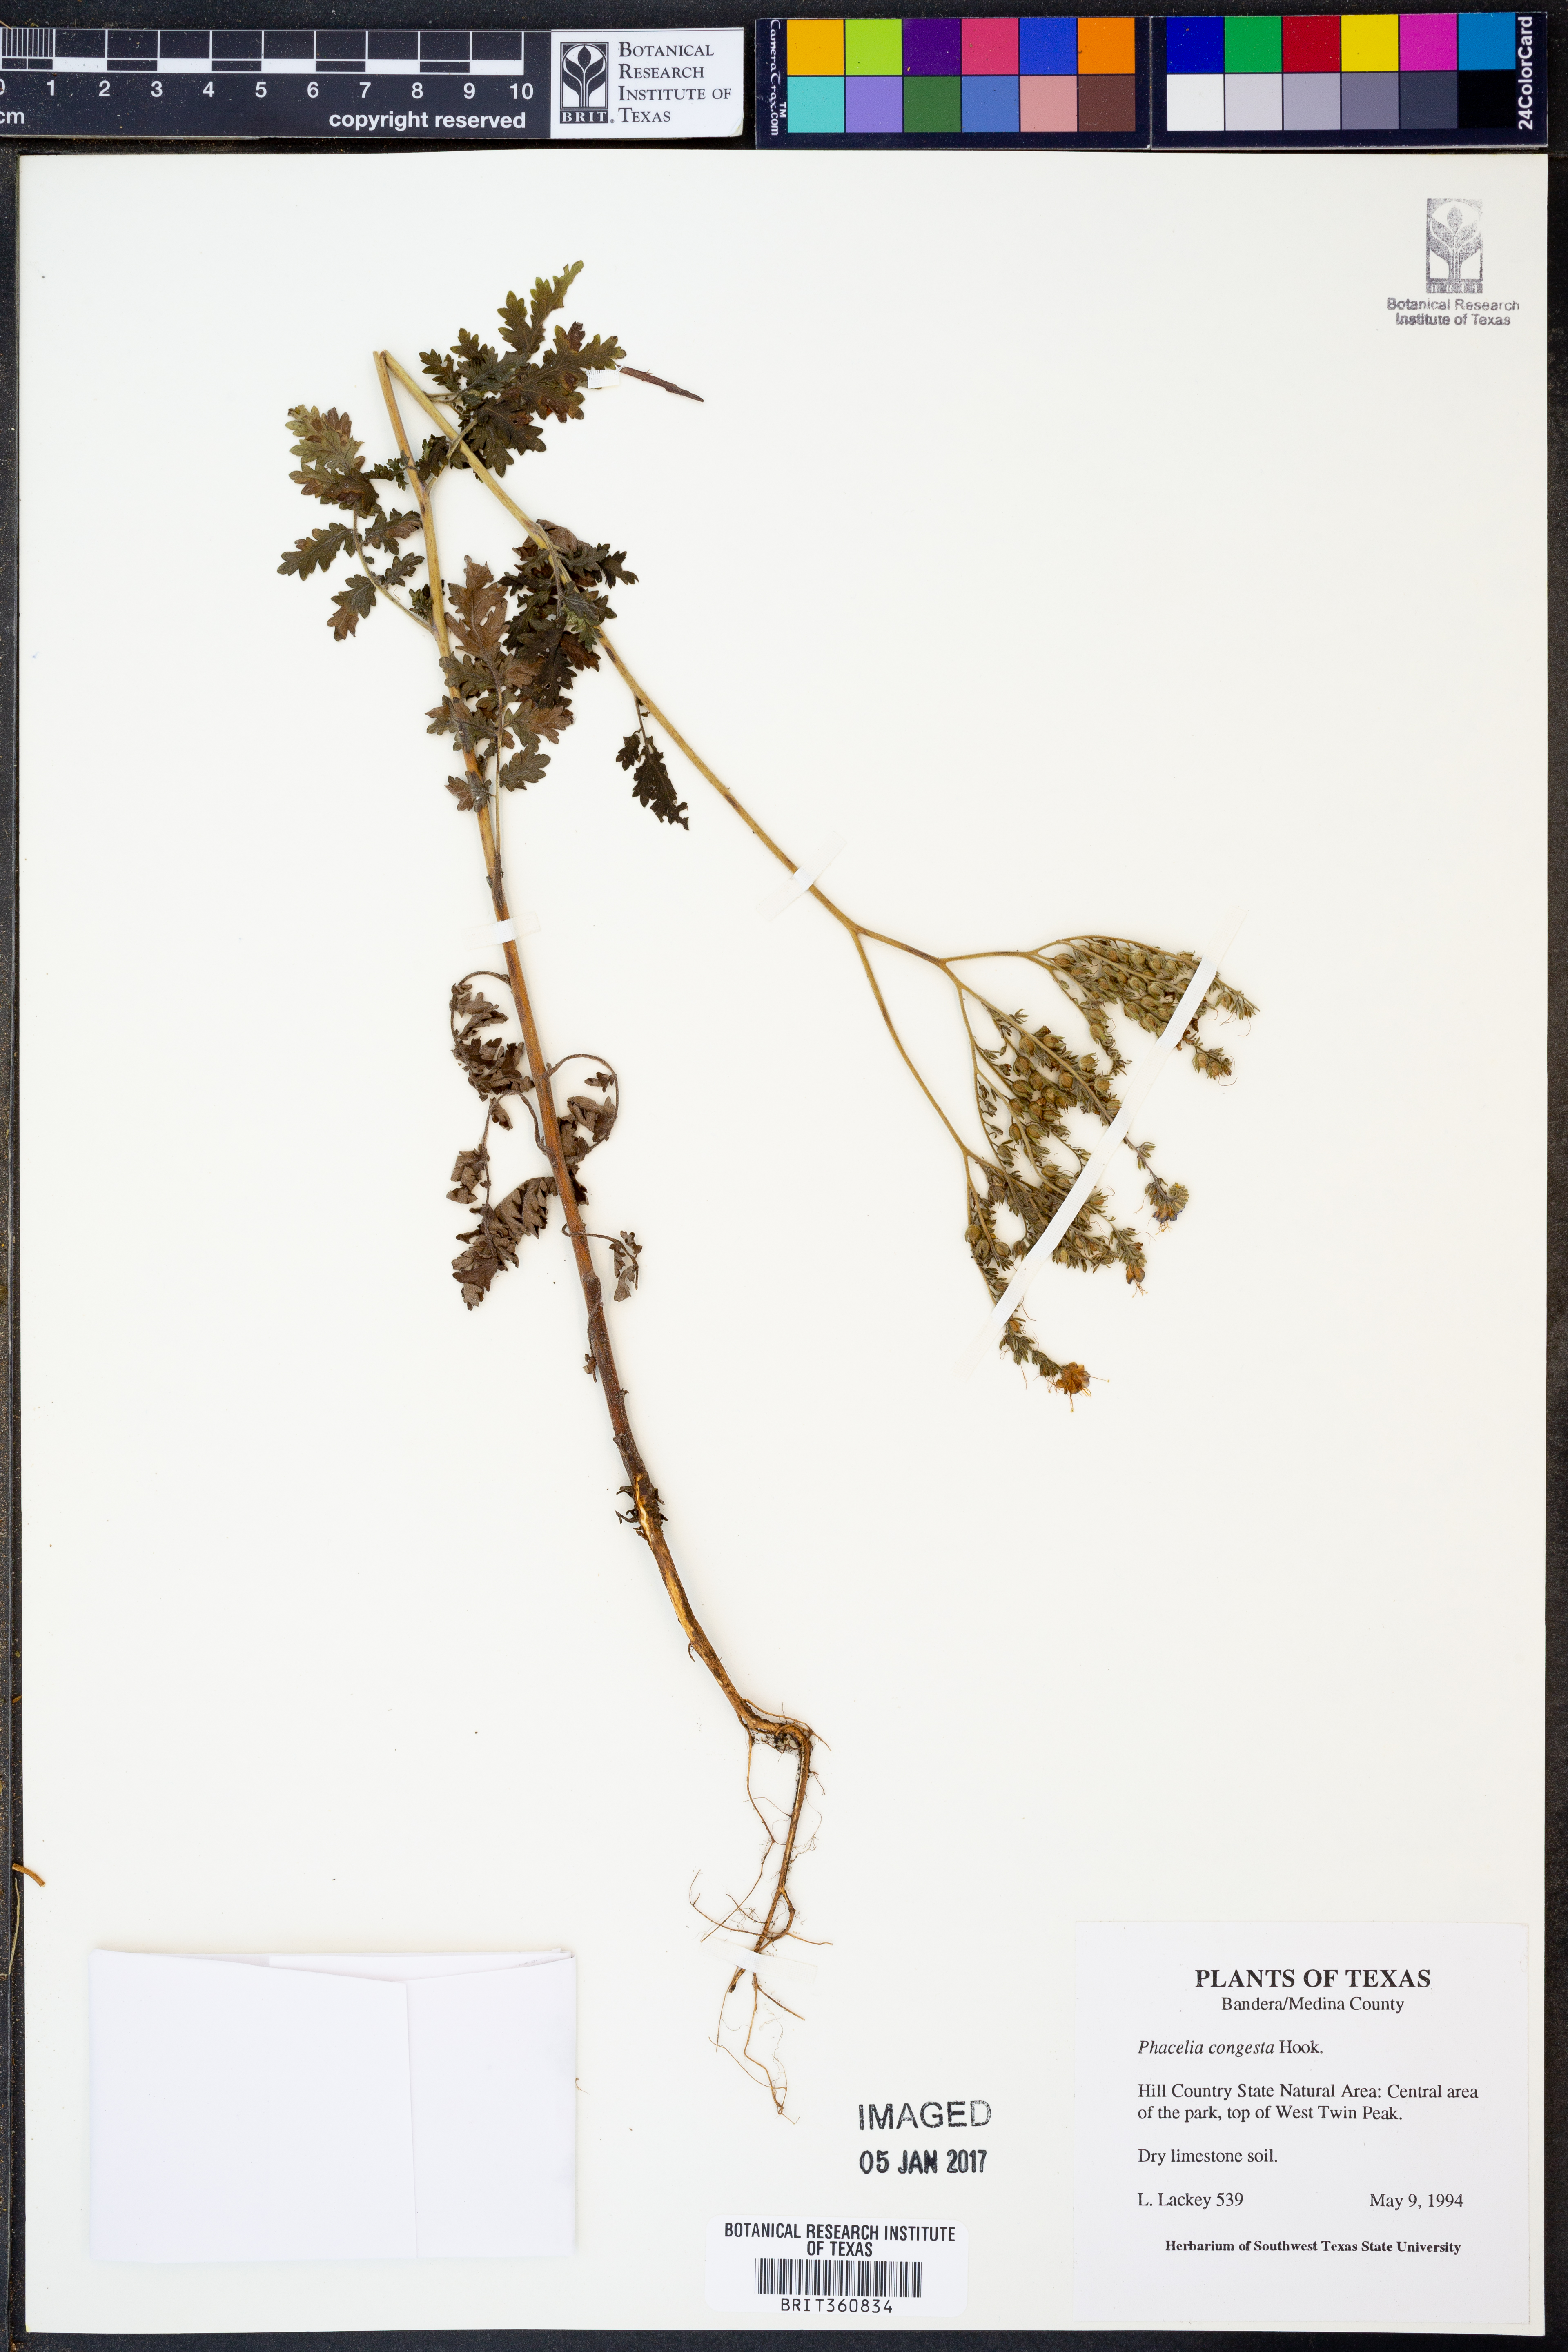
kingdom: Plantae
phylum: Tracheophyta
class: Magnoliopsida
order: Boraginales
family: Hydrophyllaceae
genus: Phacelia
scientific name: Phacelia congesta
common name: Blue curls
